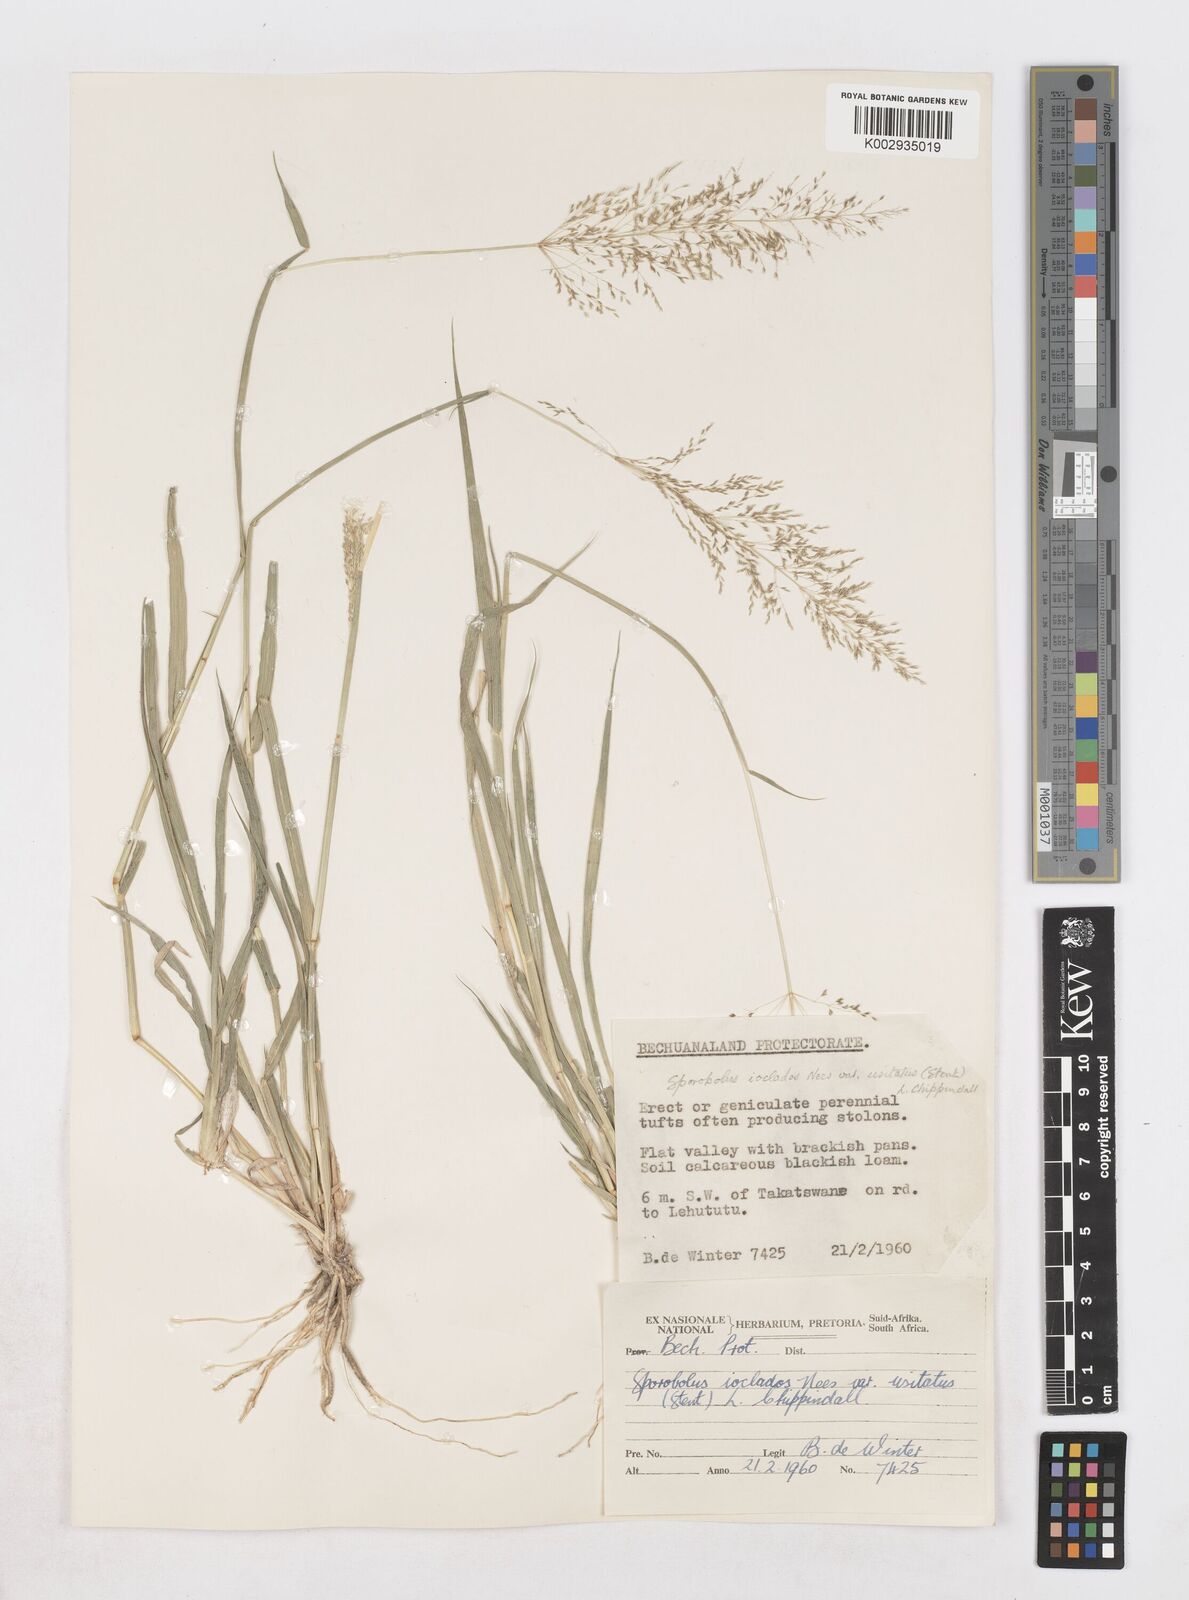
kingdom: Plantae
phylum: Tracheophyta
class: Liliopsida
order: Poales
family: Poaceae
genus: Sporobolus
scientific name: Sporobolus ioclados
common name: Pan dropseed
